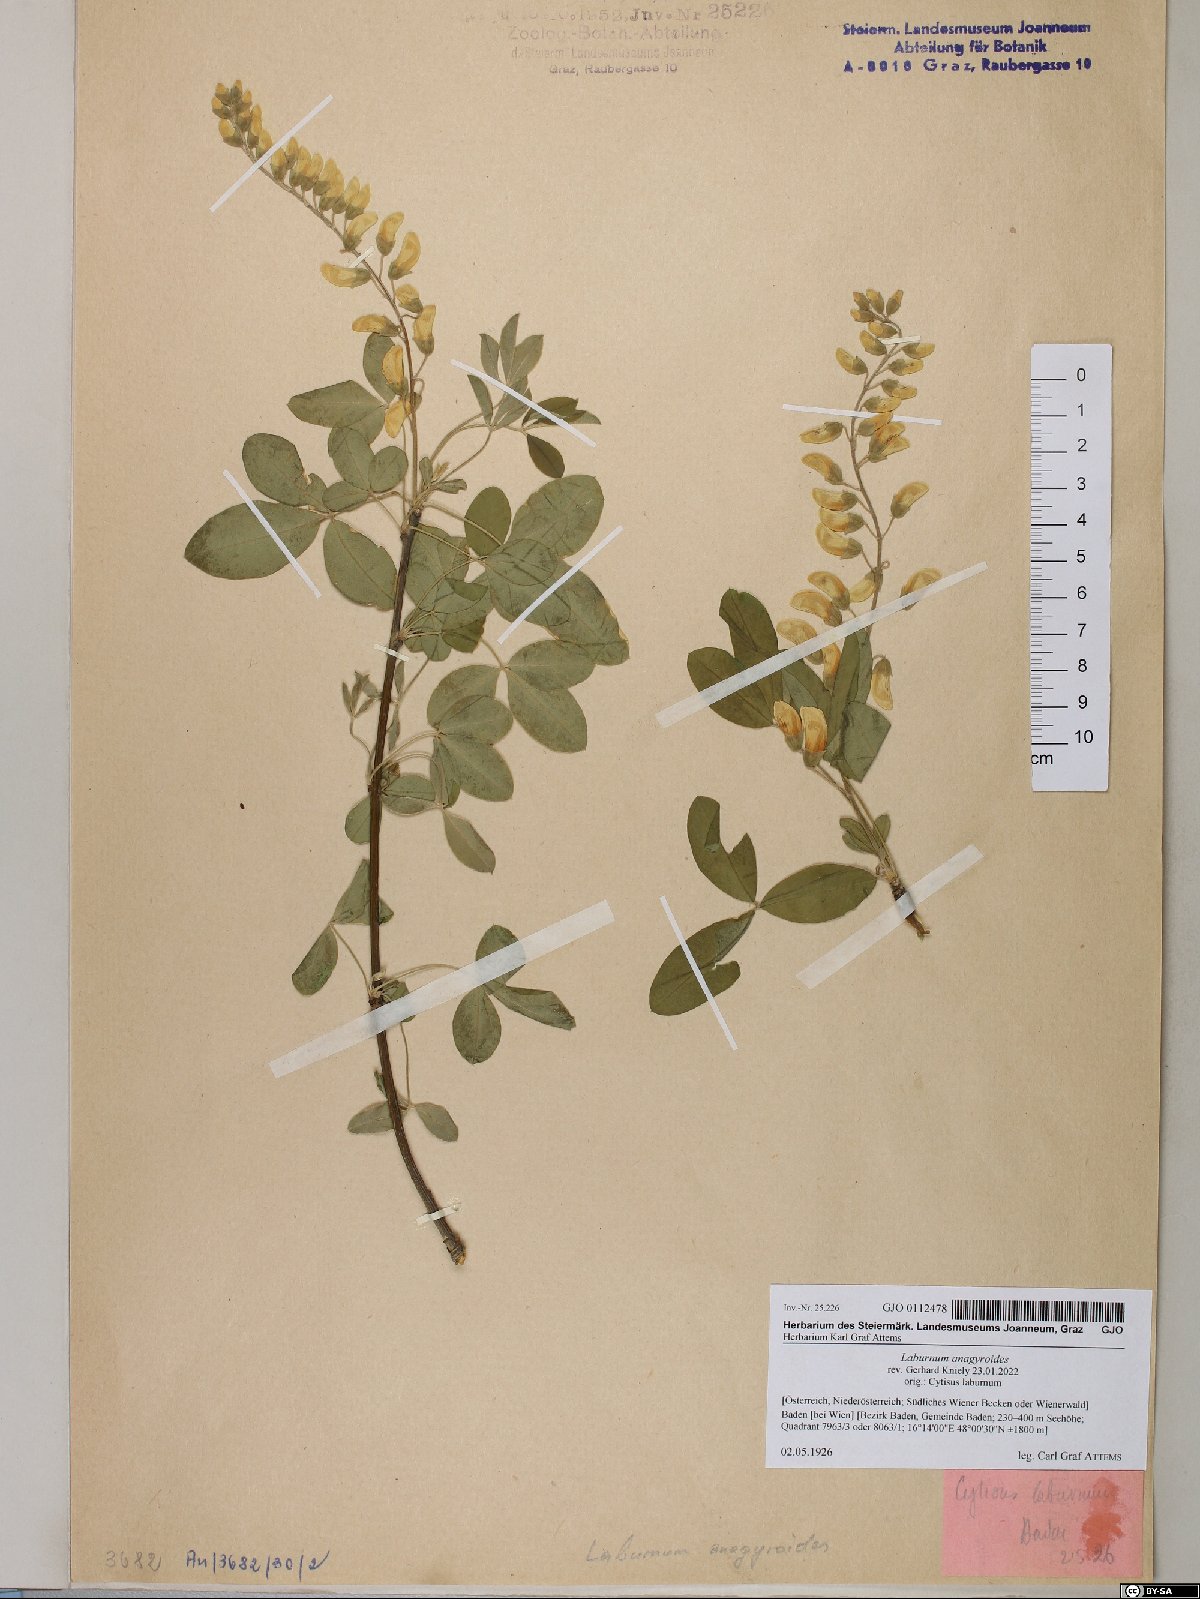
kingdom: Plantae
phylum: Tracheophyta
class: Magnoliopsida
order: Fabales
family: Fabaceae
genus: Laburnum
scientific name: Laburnum anagyroides
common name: Laburnum
